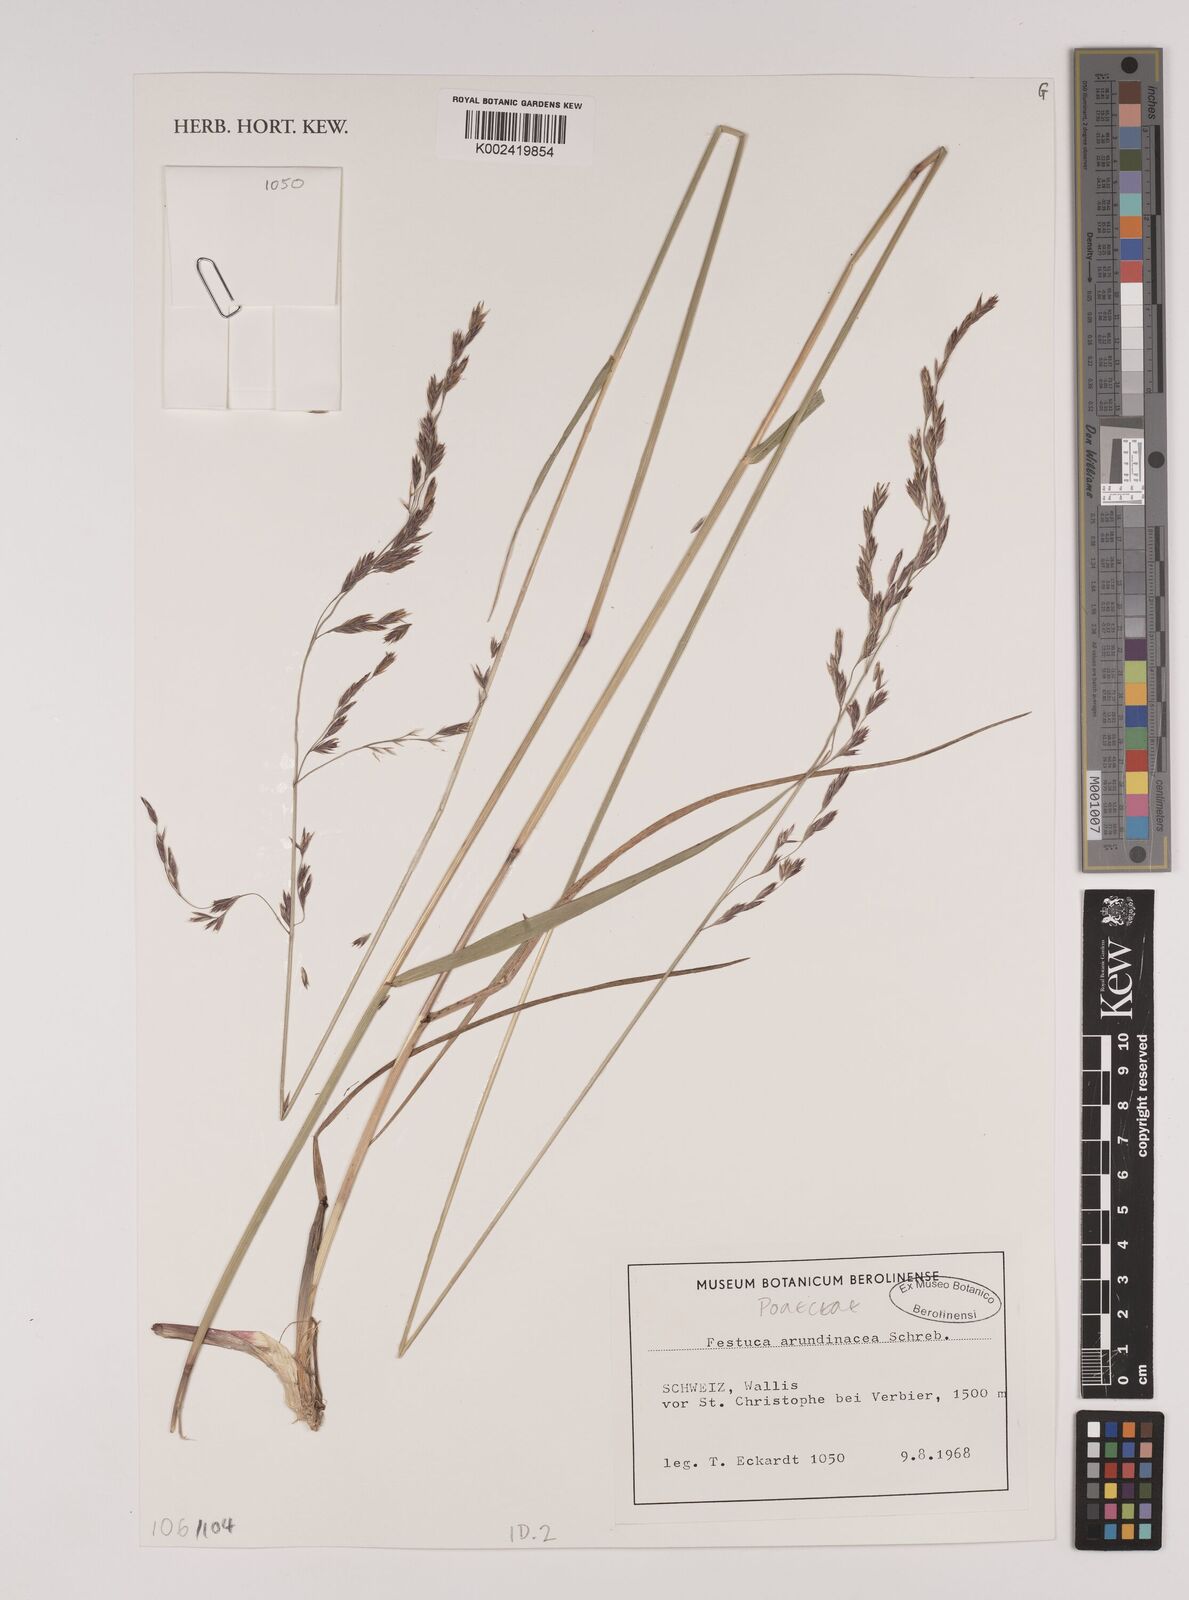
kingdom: Plantae
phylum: Tracheophyta
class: Liliopsida
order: Poales
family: Poaceae
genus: Lolium
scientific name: Lolium arundinaceum
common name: Reed fescue
